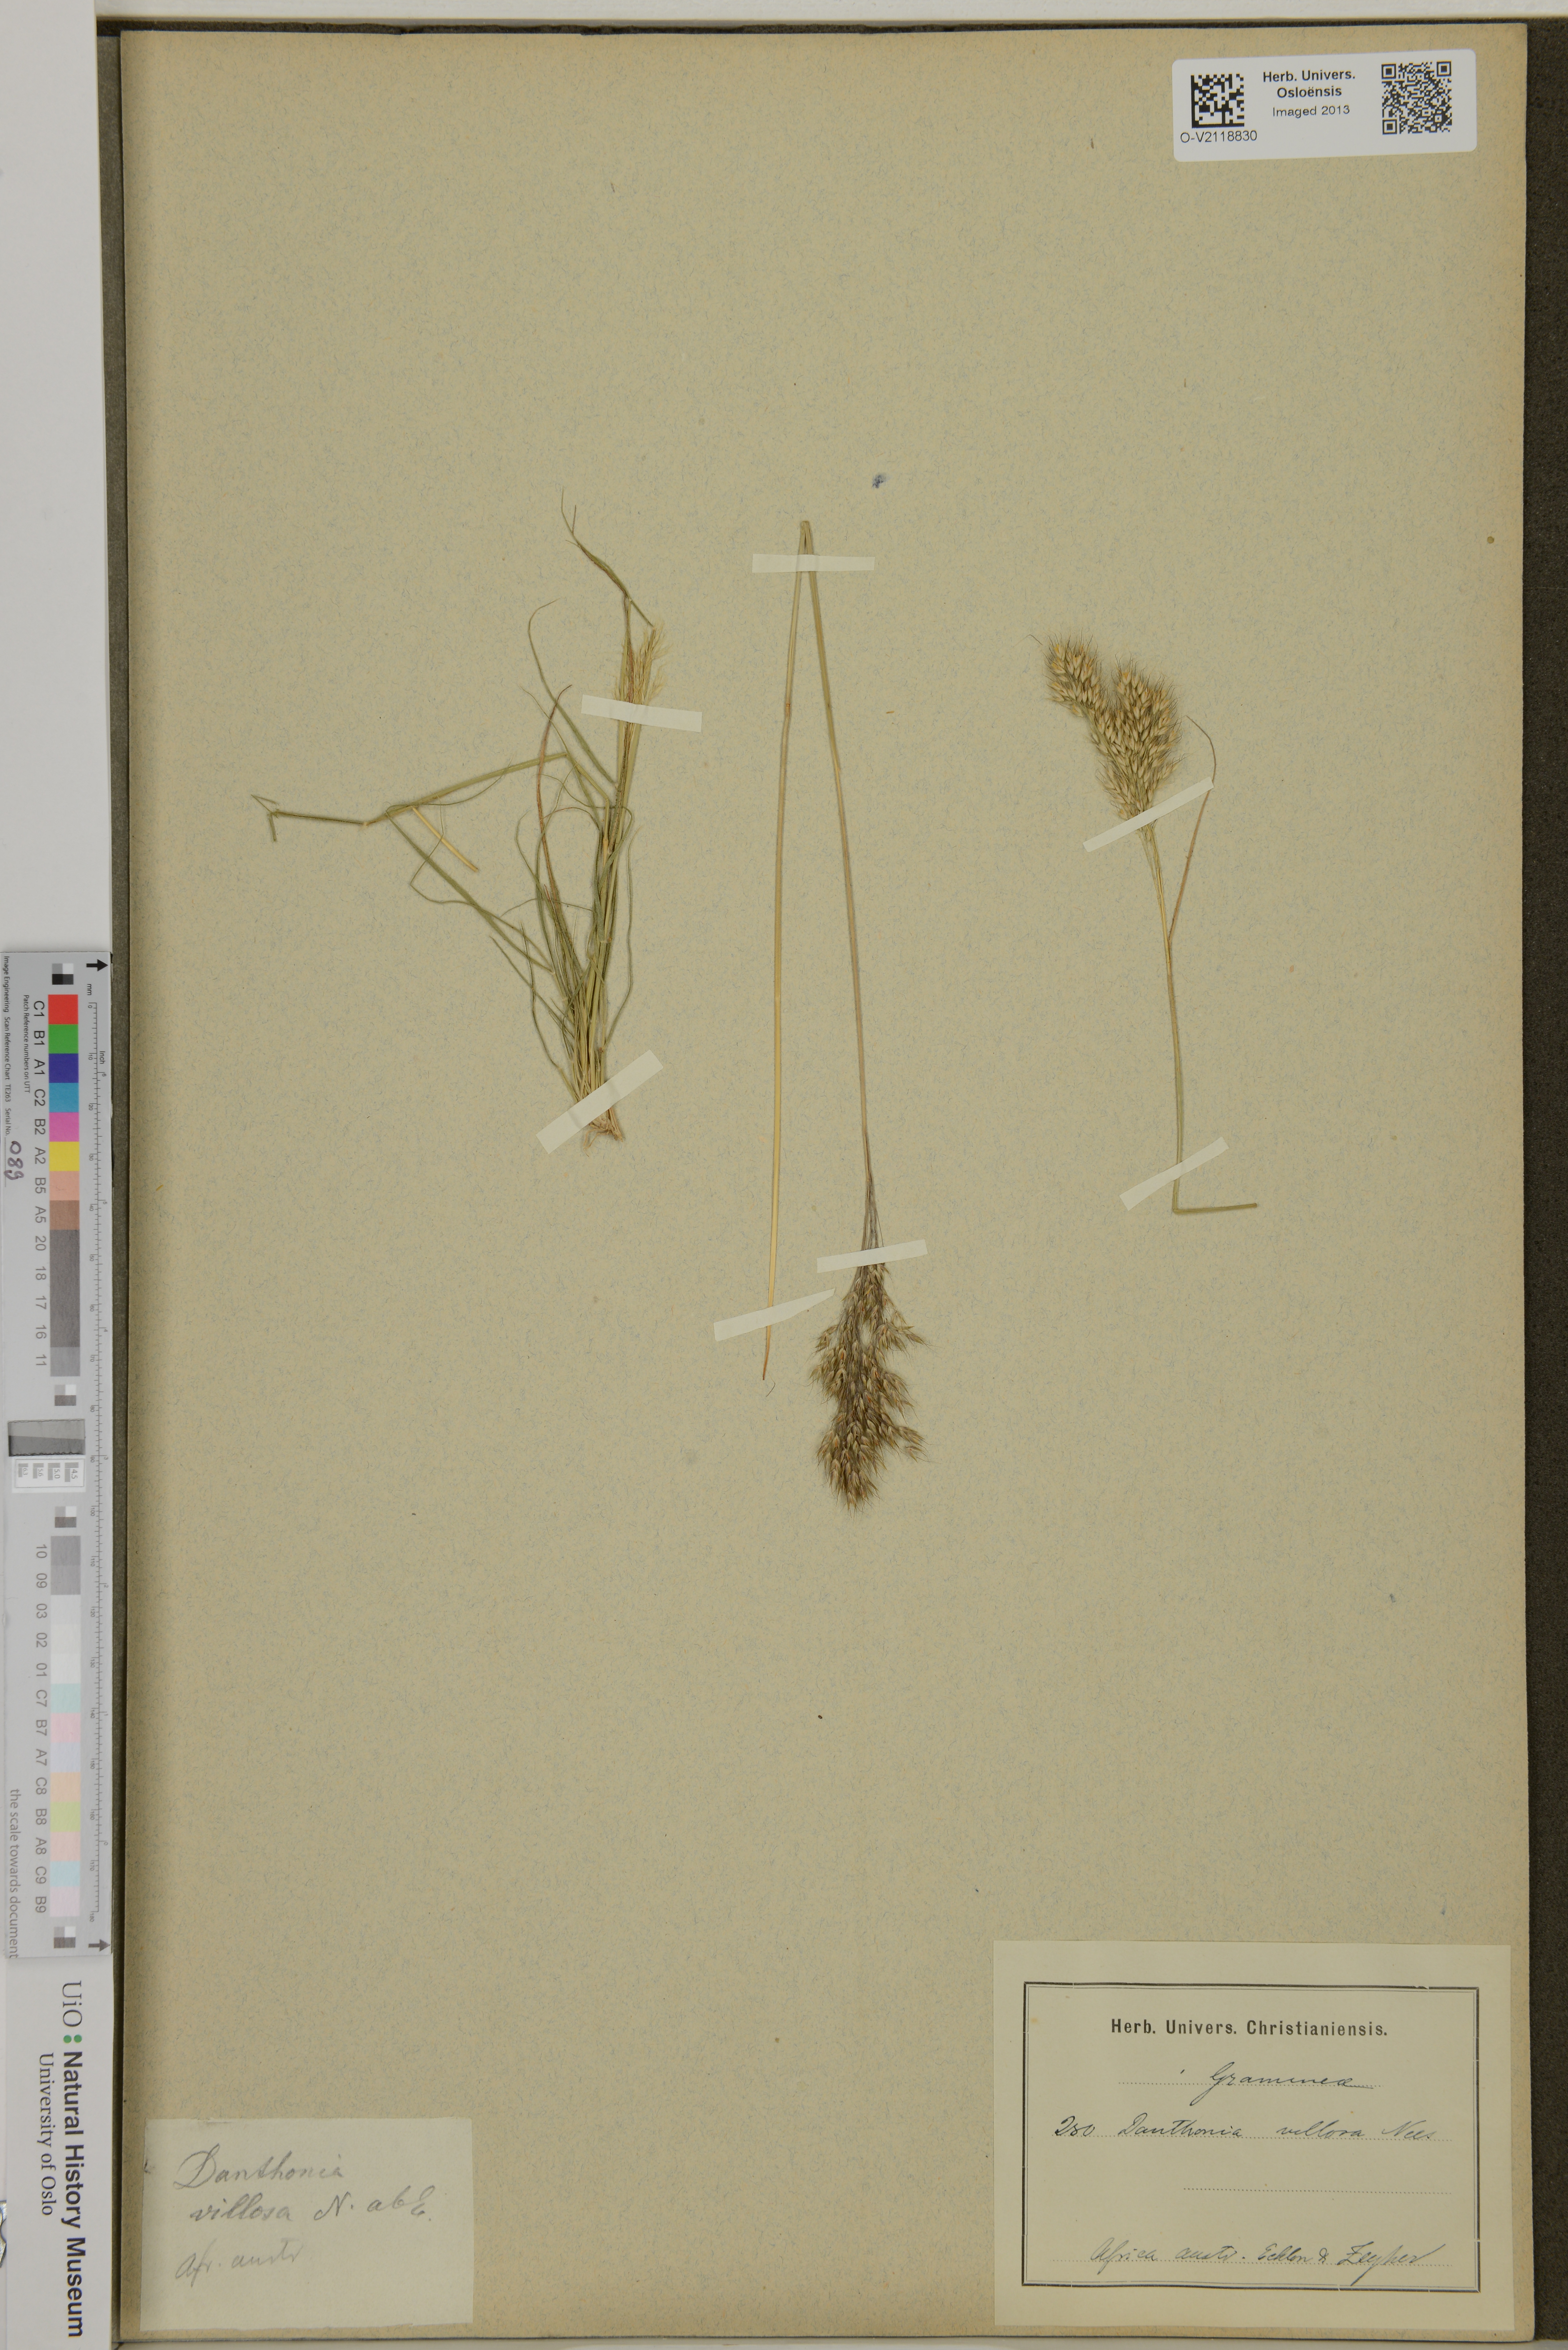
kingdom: Plantae
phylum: Tracheophyta
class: Liliopsida
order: Poales
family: Poaceae
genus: Pentameris
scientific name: Pentameris triseta
